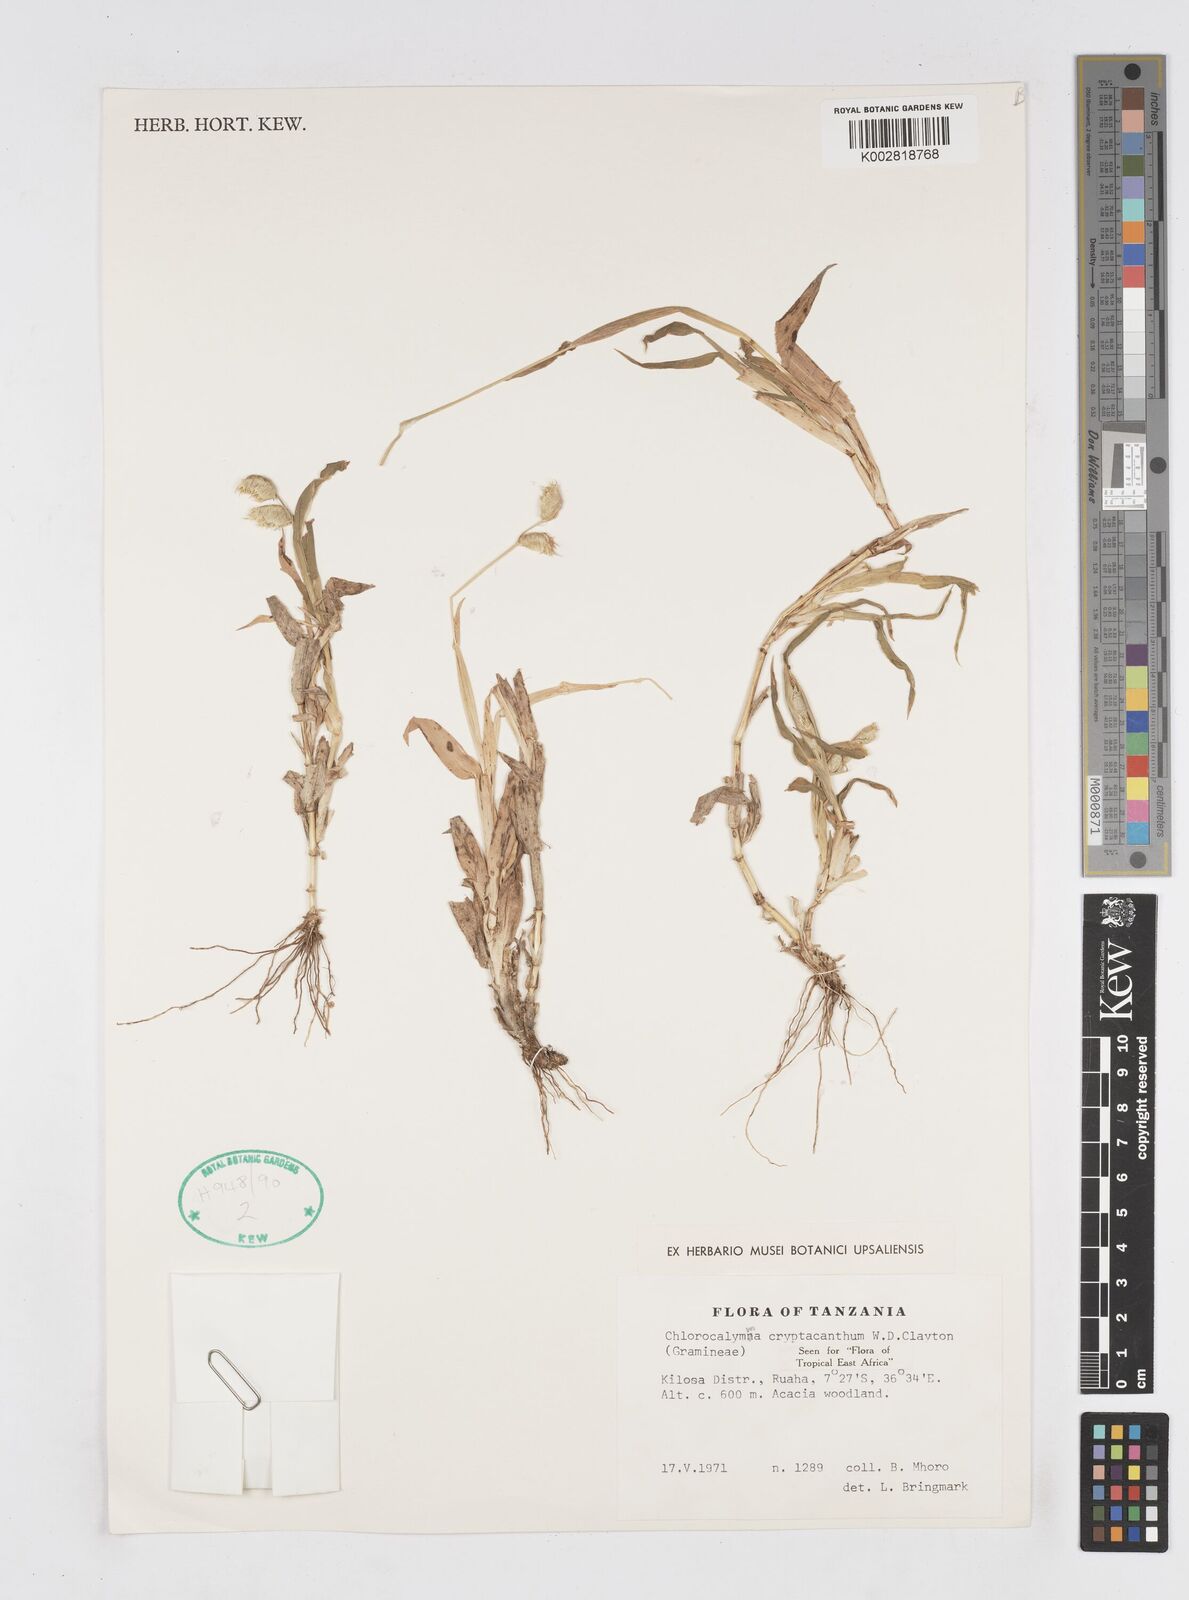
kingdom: Plantae
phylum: Tracheophyta
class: Liliopsida
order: Poales
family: Poaceae
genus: Chlorocalymma
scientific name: Chlorocalymma cryptacanthum
